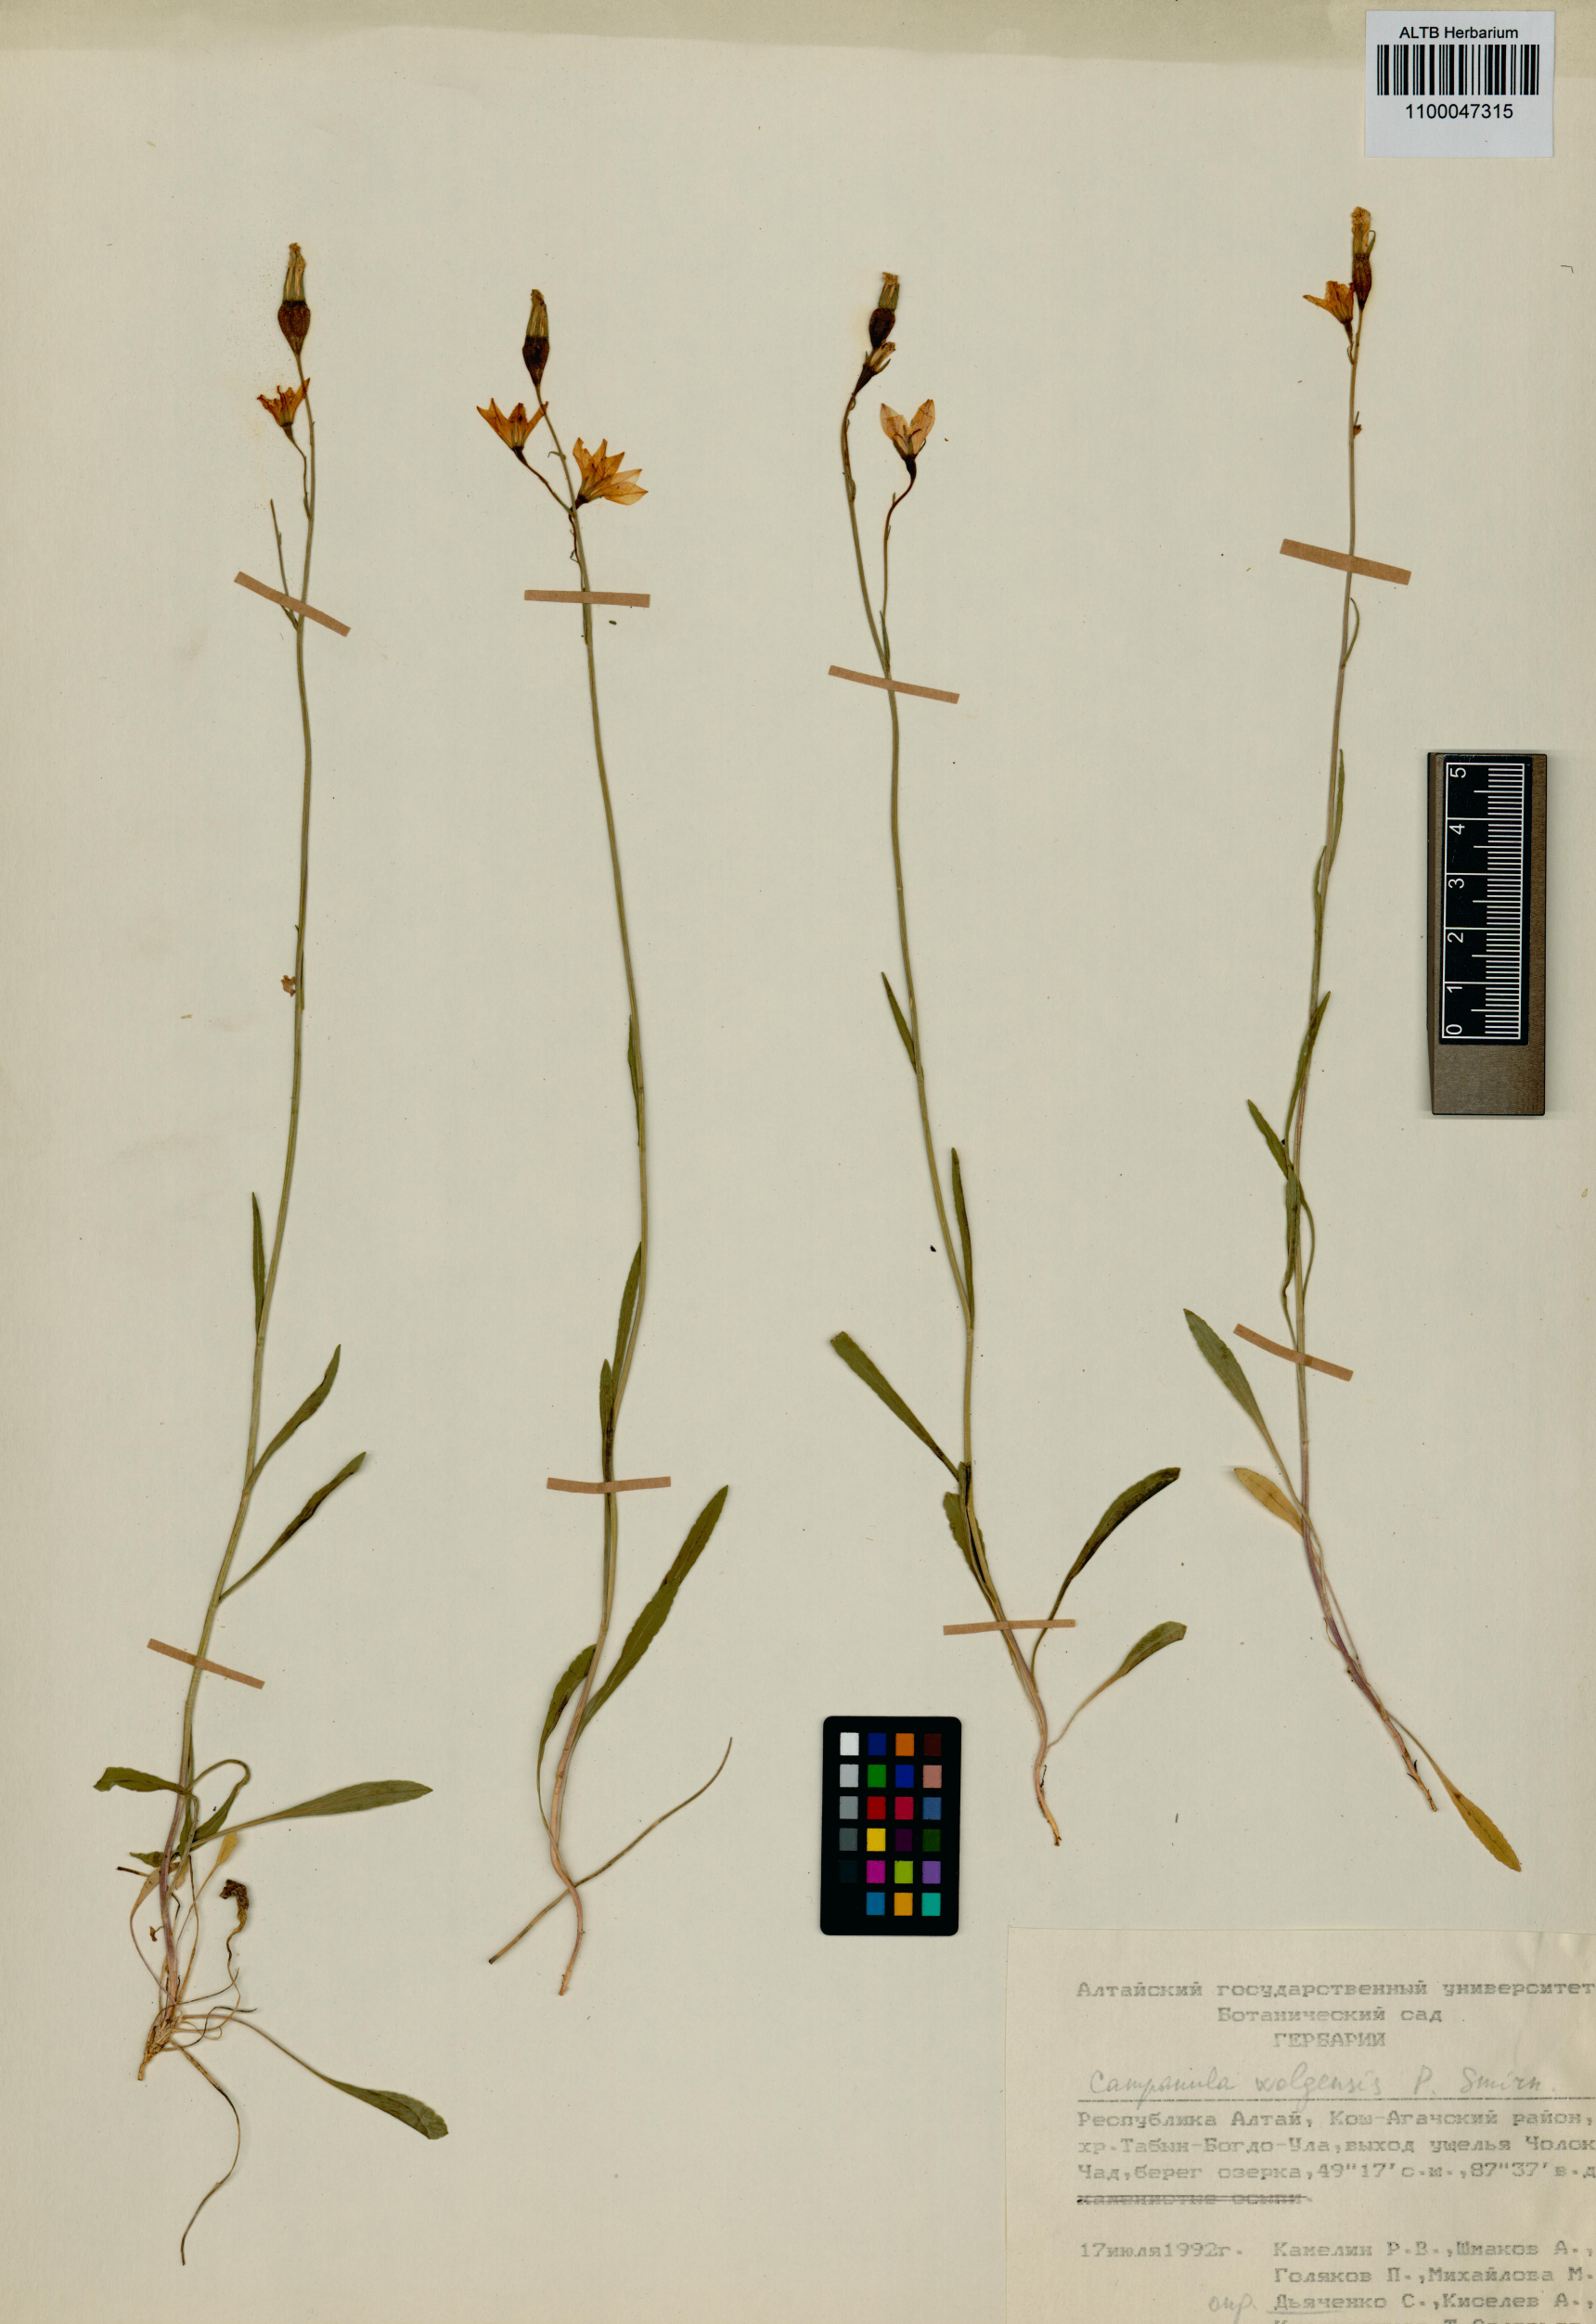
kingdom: Plantae
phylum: Tracheophyta
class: Magnoliopsida
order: Asterales
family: Campanulaceae
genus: Campanula
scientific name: Campanula stevenii
